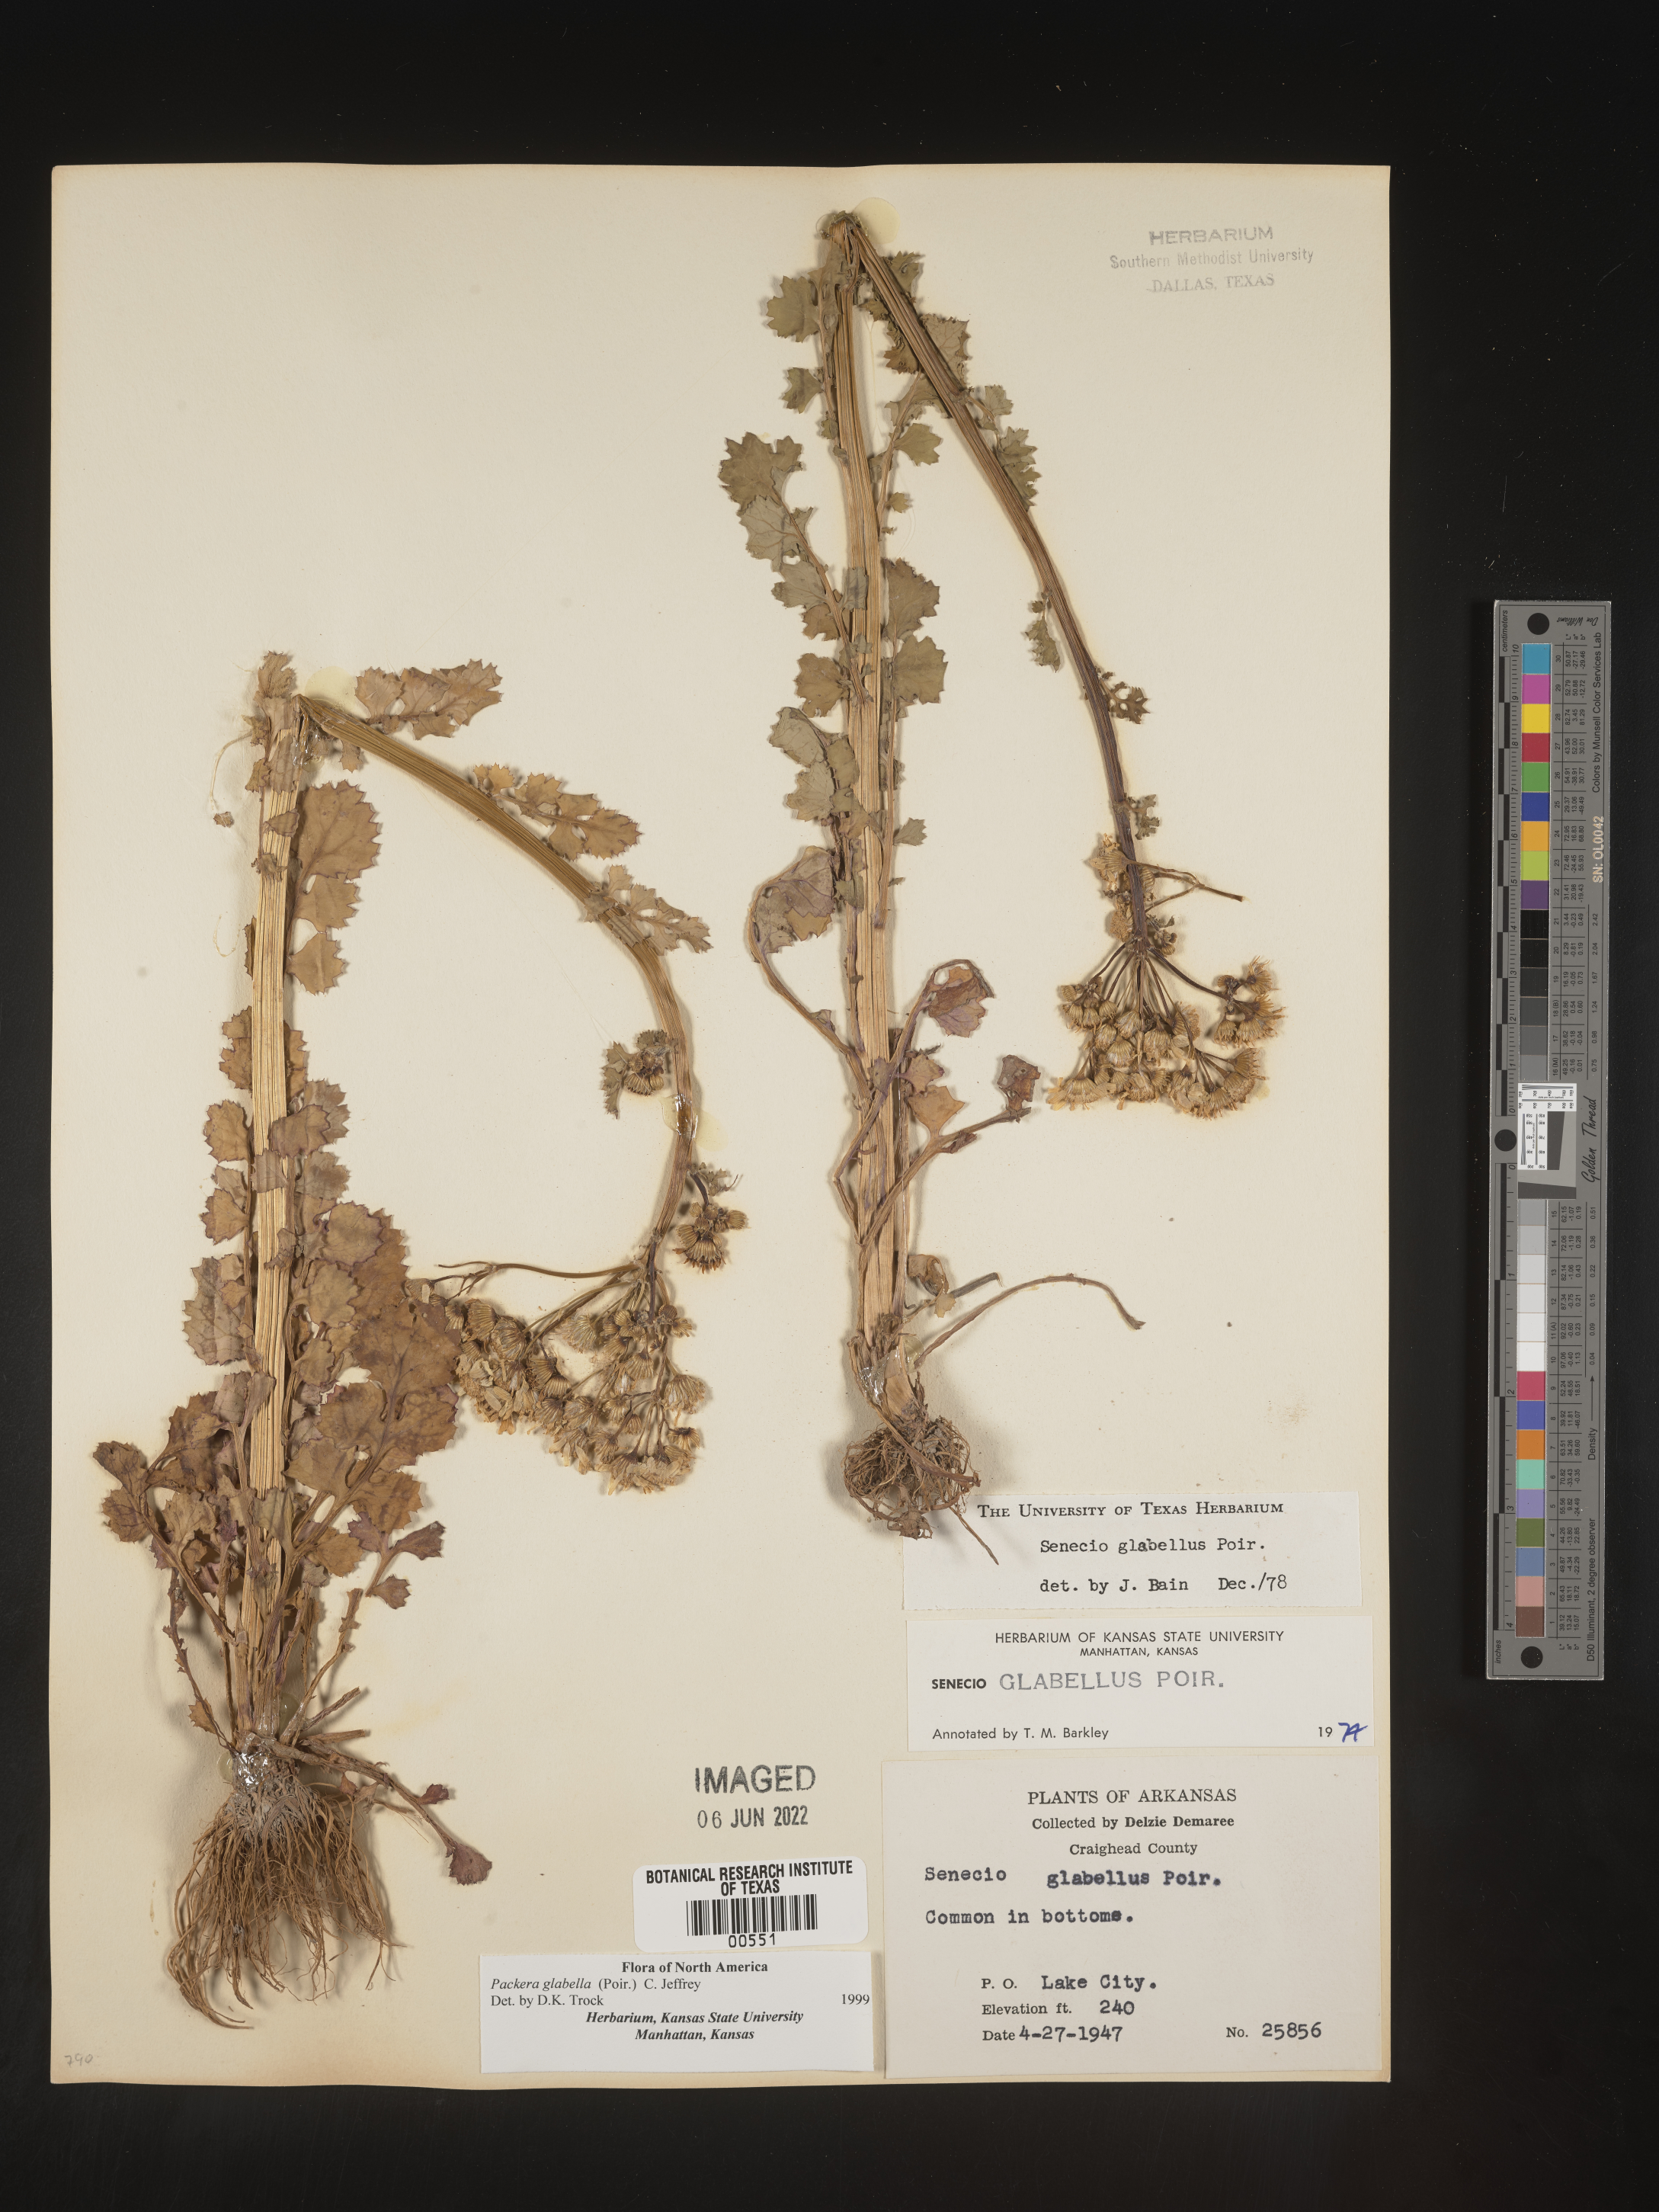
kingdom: Plantae
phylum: Tracheophyta
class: Magnoliopsida
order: Asterales
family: Asteraceae
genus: Packera
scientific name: Packera glabella
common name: Butterweed
